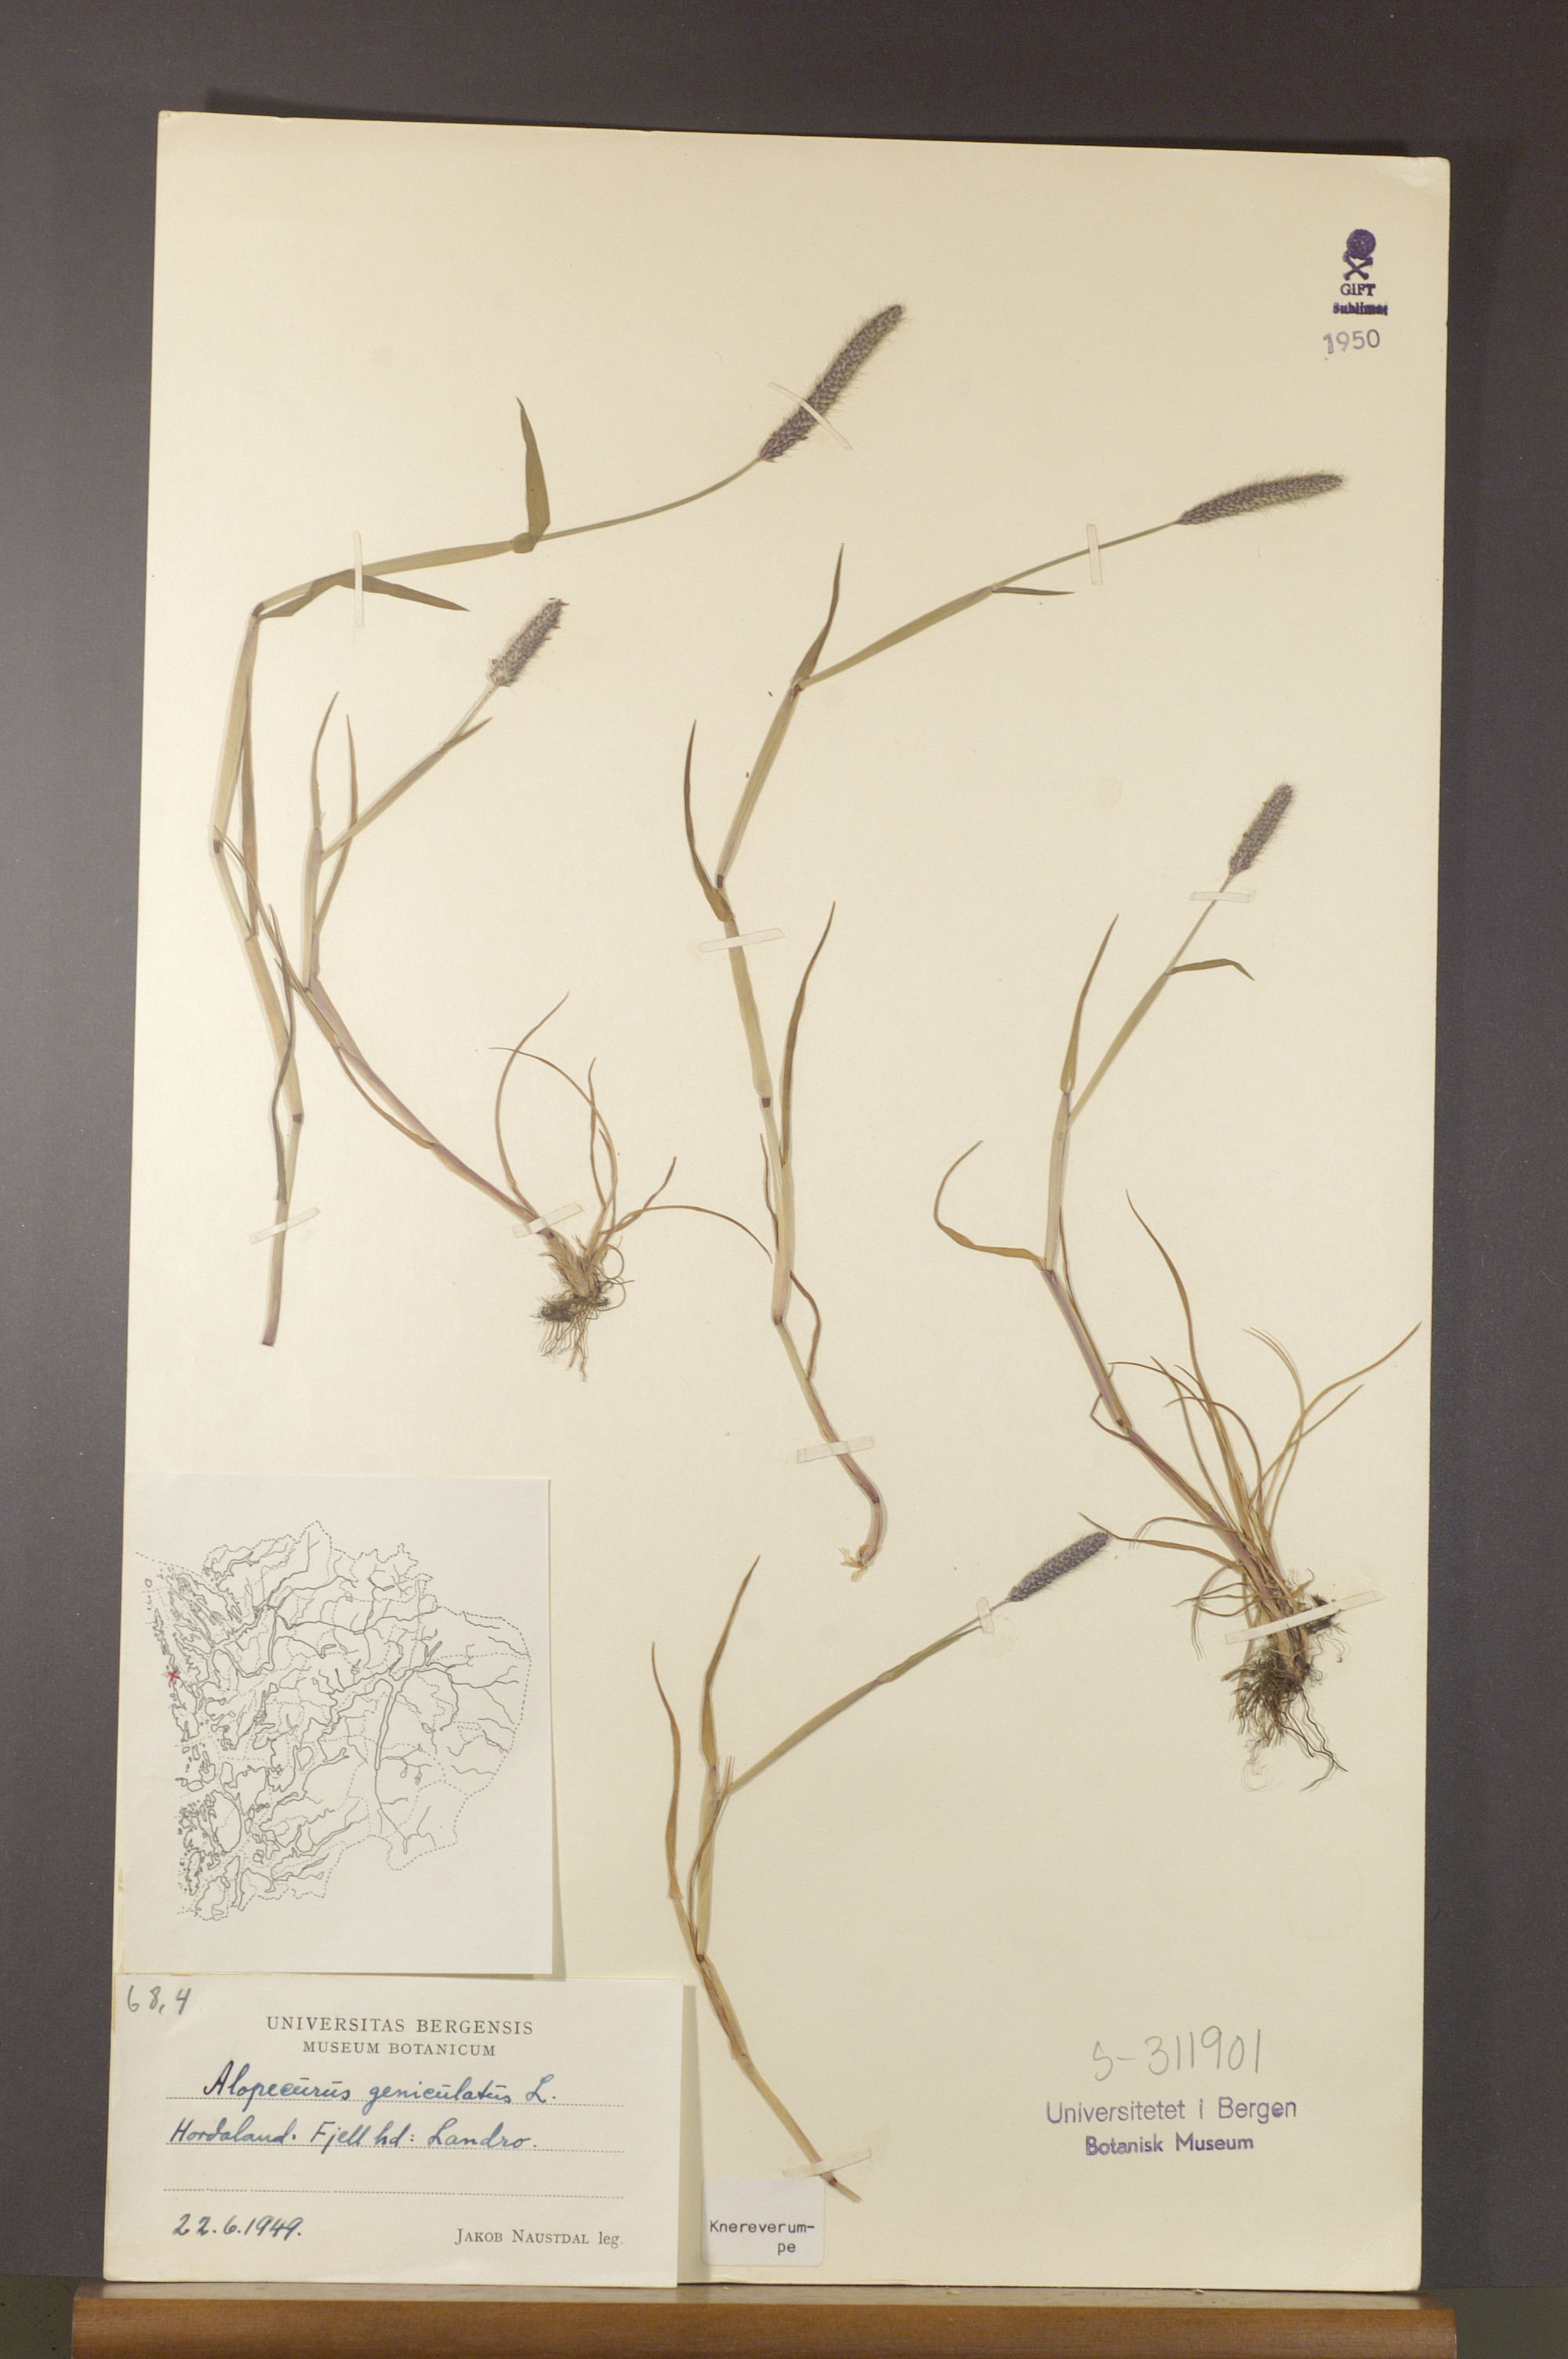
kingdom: Plantae
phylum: Tracheophyta
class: Liliopsida
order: Poales
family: Poaceae
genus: Alopecurus
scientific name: Alopecurus geniculatus
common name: Water foxtail
